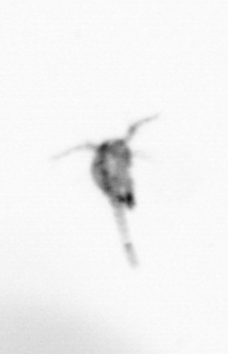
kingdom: Animalia
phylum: Arthropoda
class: Copepoda
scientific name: Copepoda
